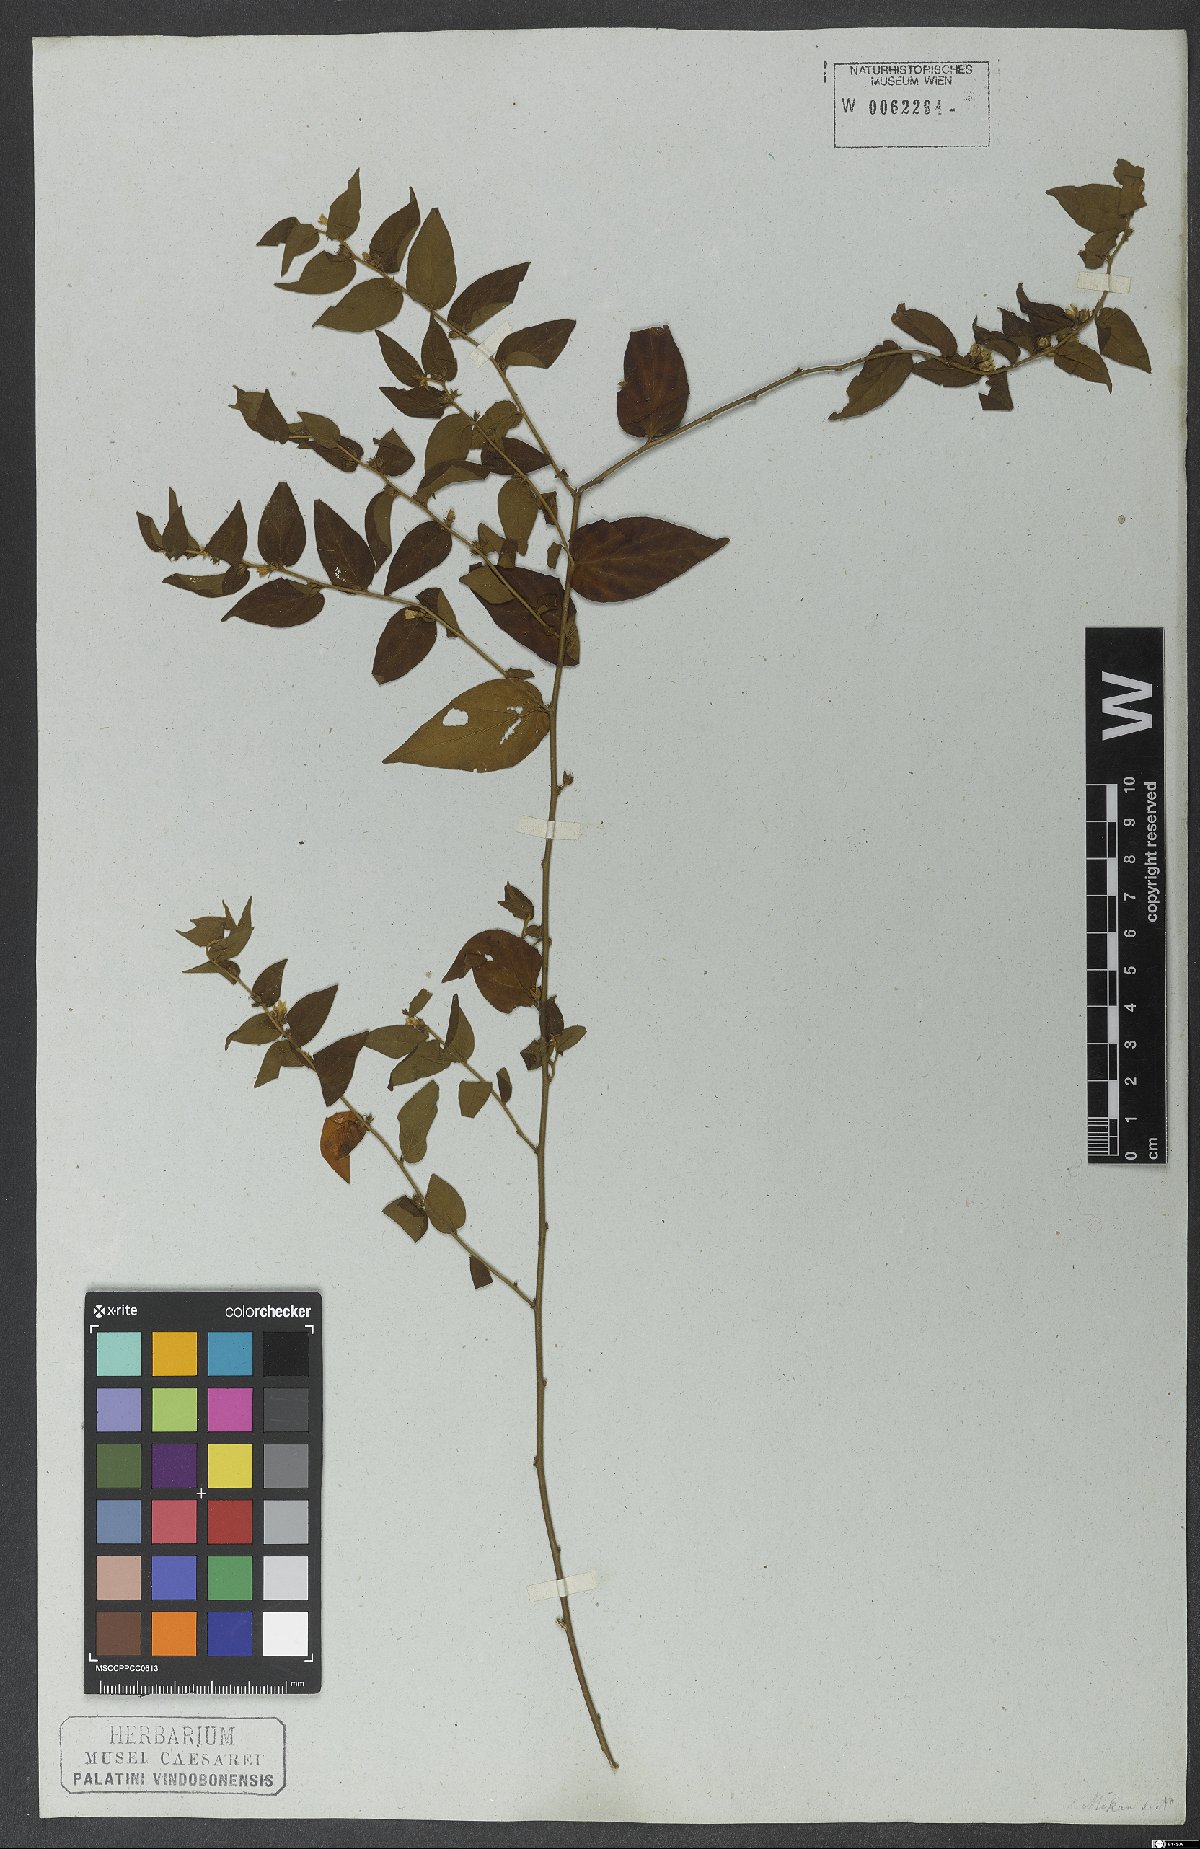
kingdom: Plantae
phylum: Tracheophyta
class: Magnoliopsida
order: Solanales
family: Convolvulaceae
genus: Evolvulus
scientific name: Evolvulus latifolius
